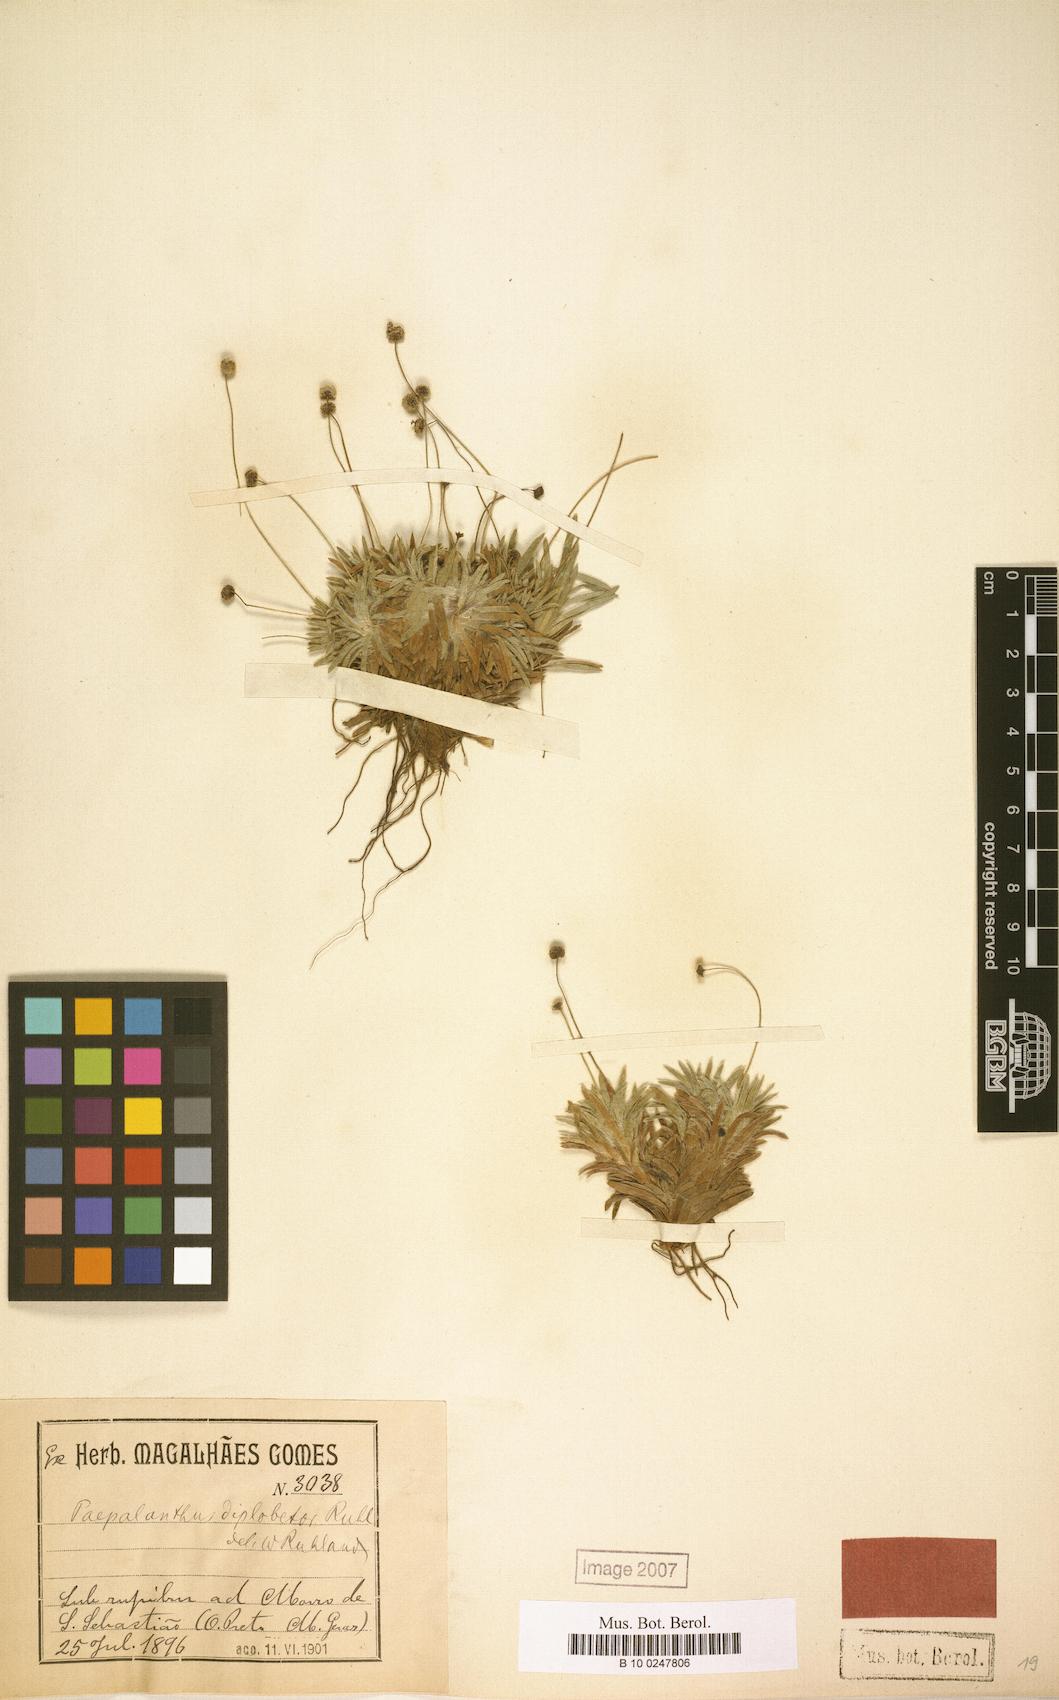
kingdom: Plantae
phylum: Tracheophyta
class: Liliopsida
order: Poales
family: Eriocaulaceae
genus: Paepalanthus
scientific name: Paepalanthus diplobetor
